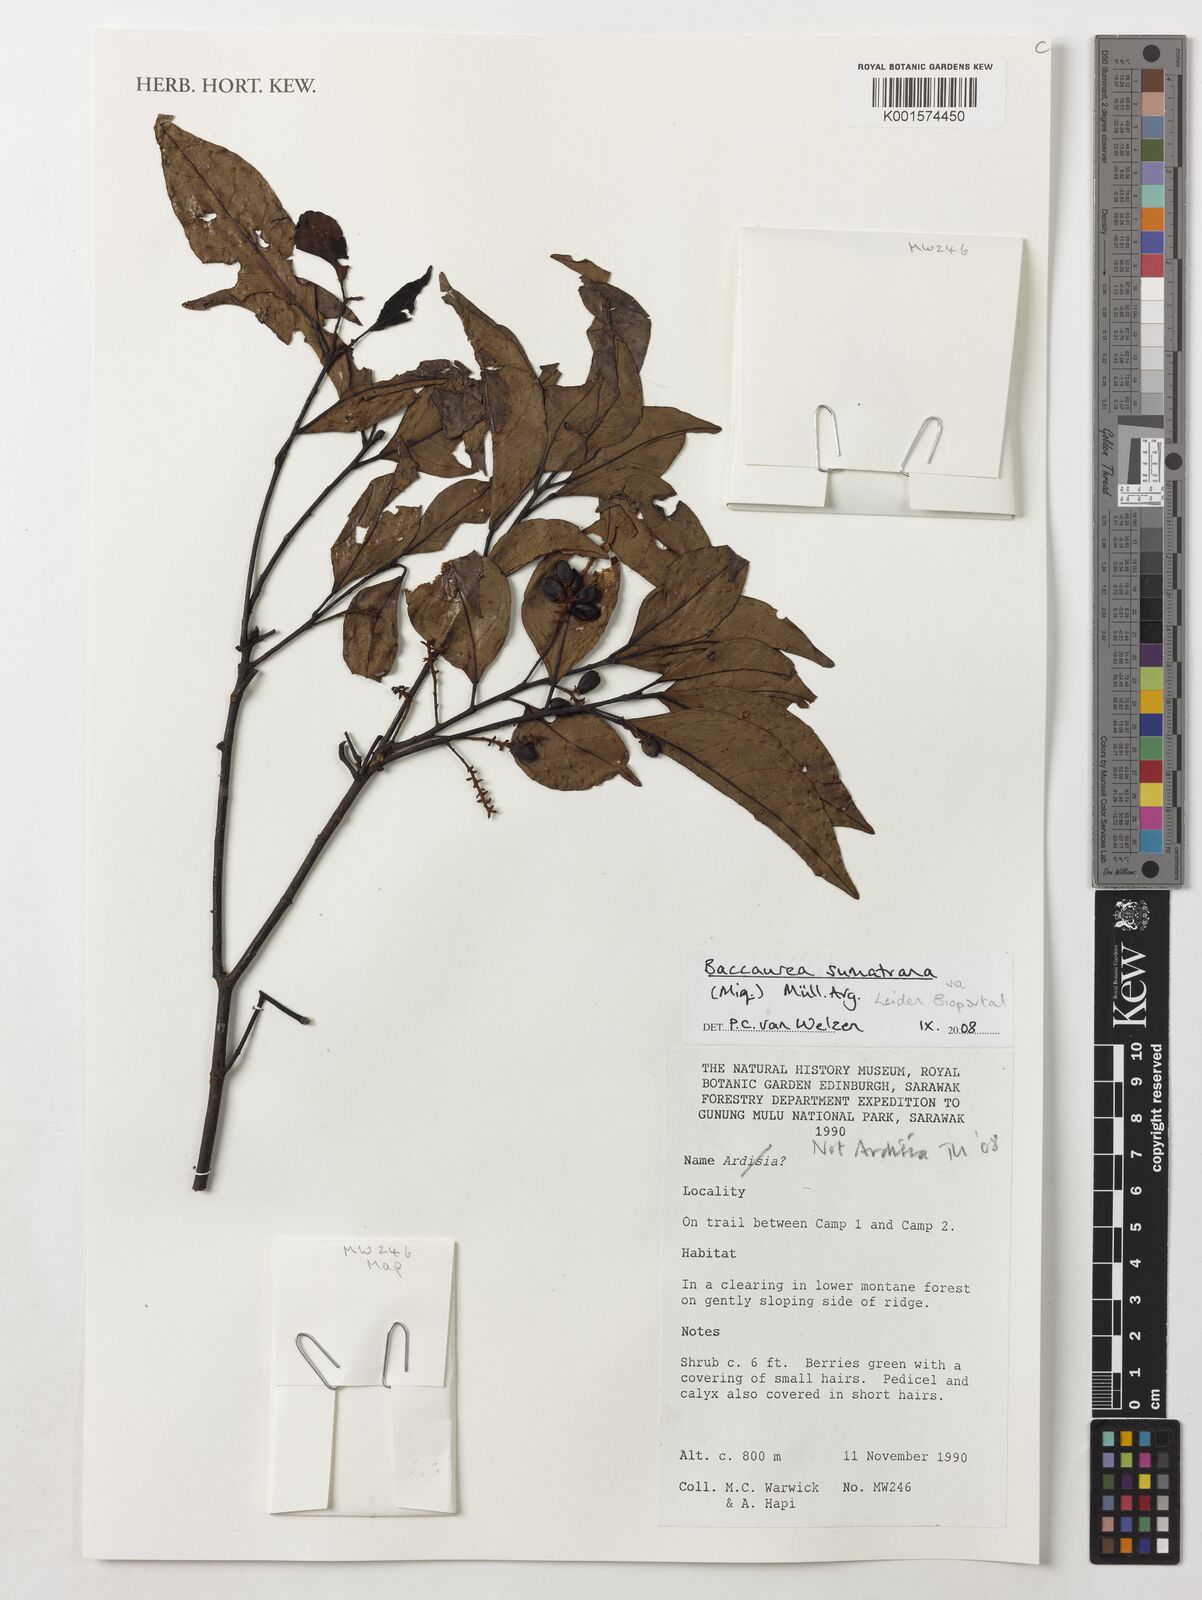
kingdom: Plantae
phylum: Tracheophyta
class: Magnoliopsida
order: Malpighiales
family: Phyllanthaceae
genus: Baccaurea
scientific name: Baccaurea sumatrana
